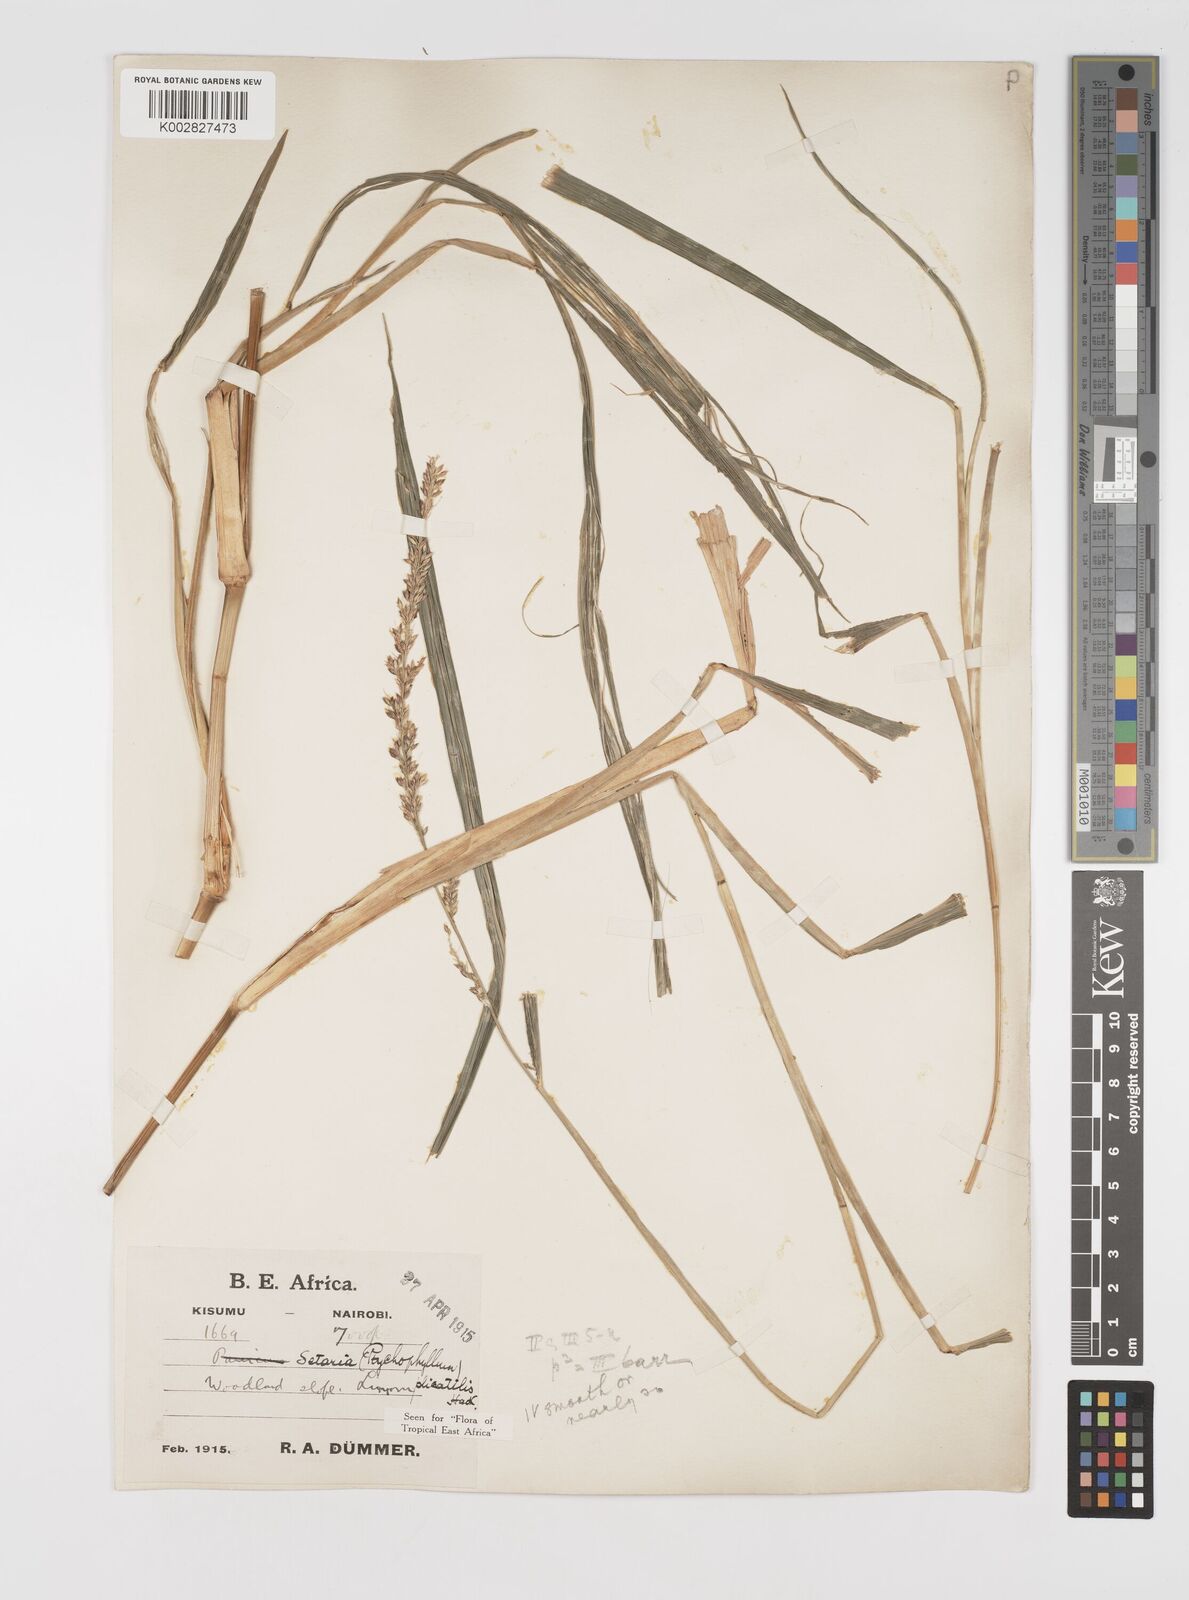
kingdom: Plantae
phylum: Tracheophyta
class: Liliopsida
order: Poales
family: Poaceae
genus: Setaria
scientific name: Setaria megaphylla
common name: Bigleaf bristlegrass
